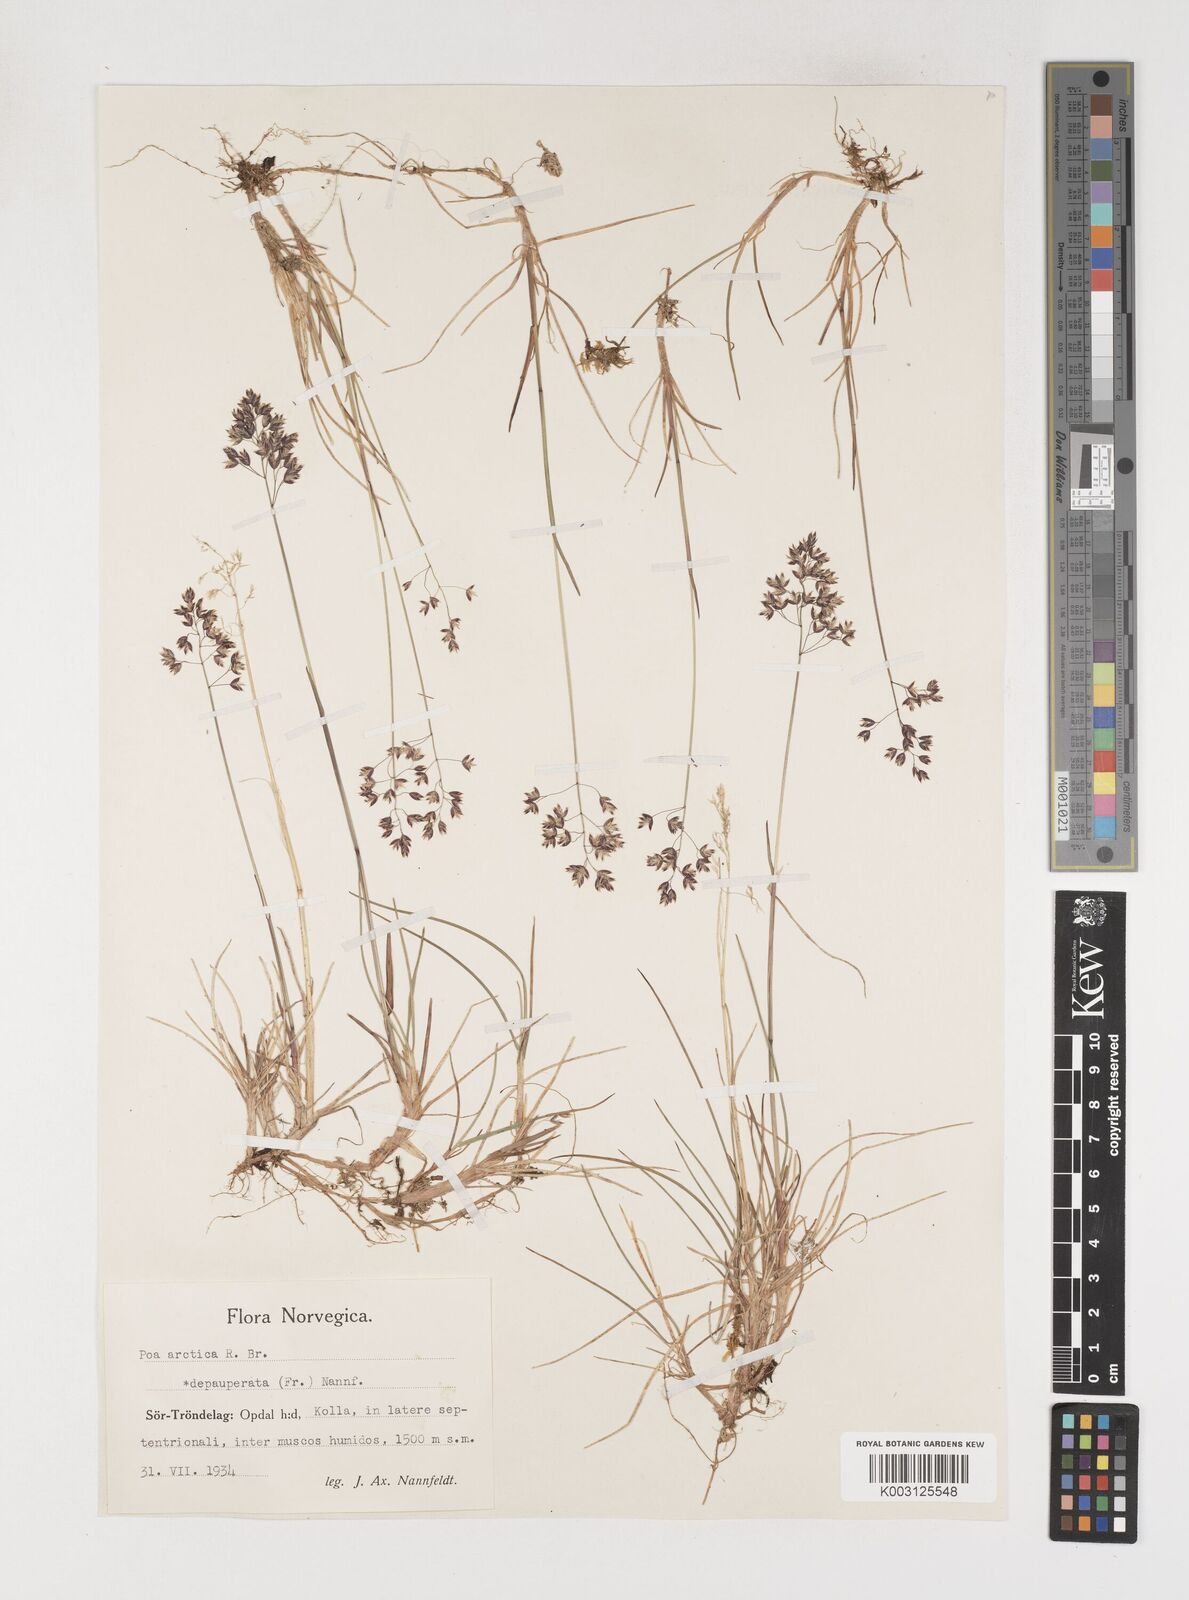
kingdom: Plantae
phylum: Tracheophyta
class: Liliopsida
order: Poales
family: Poaceae
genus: Poa
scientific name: Poa arctica
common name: Arctic bluegrass
